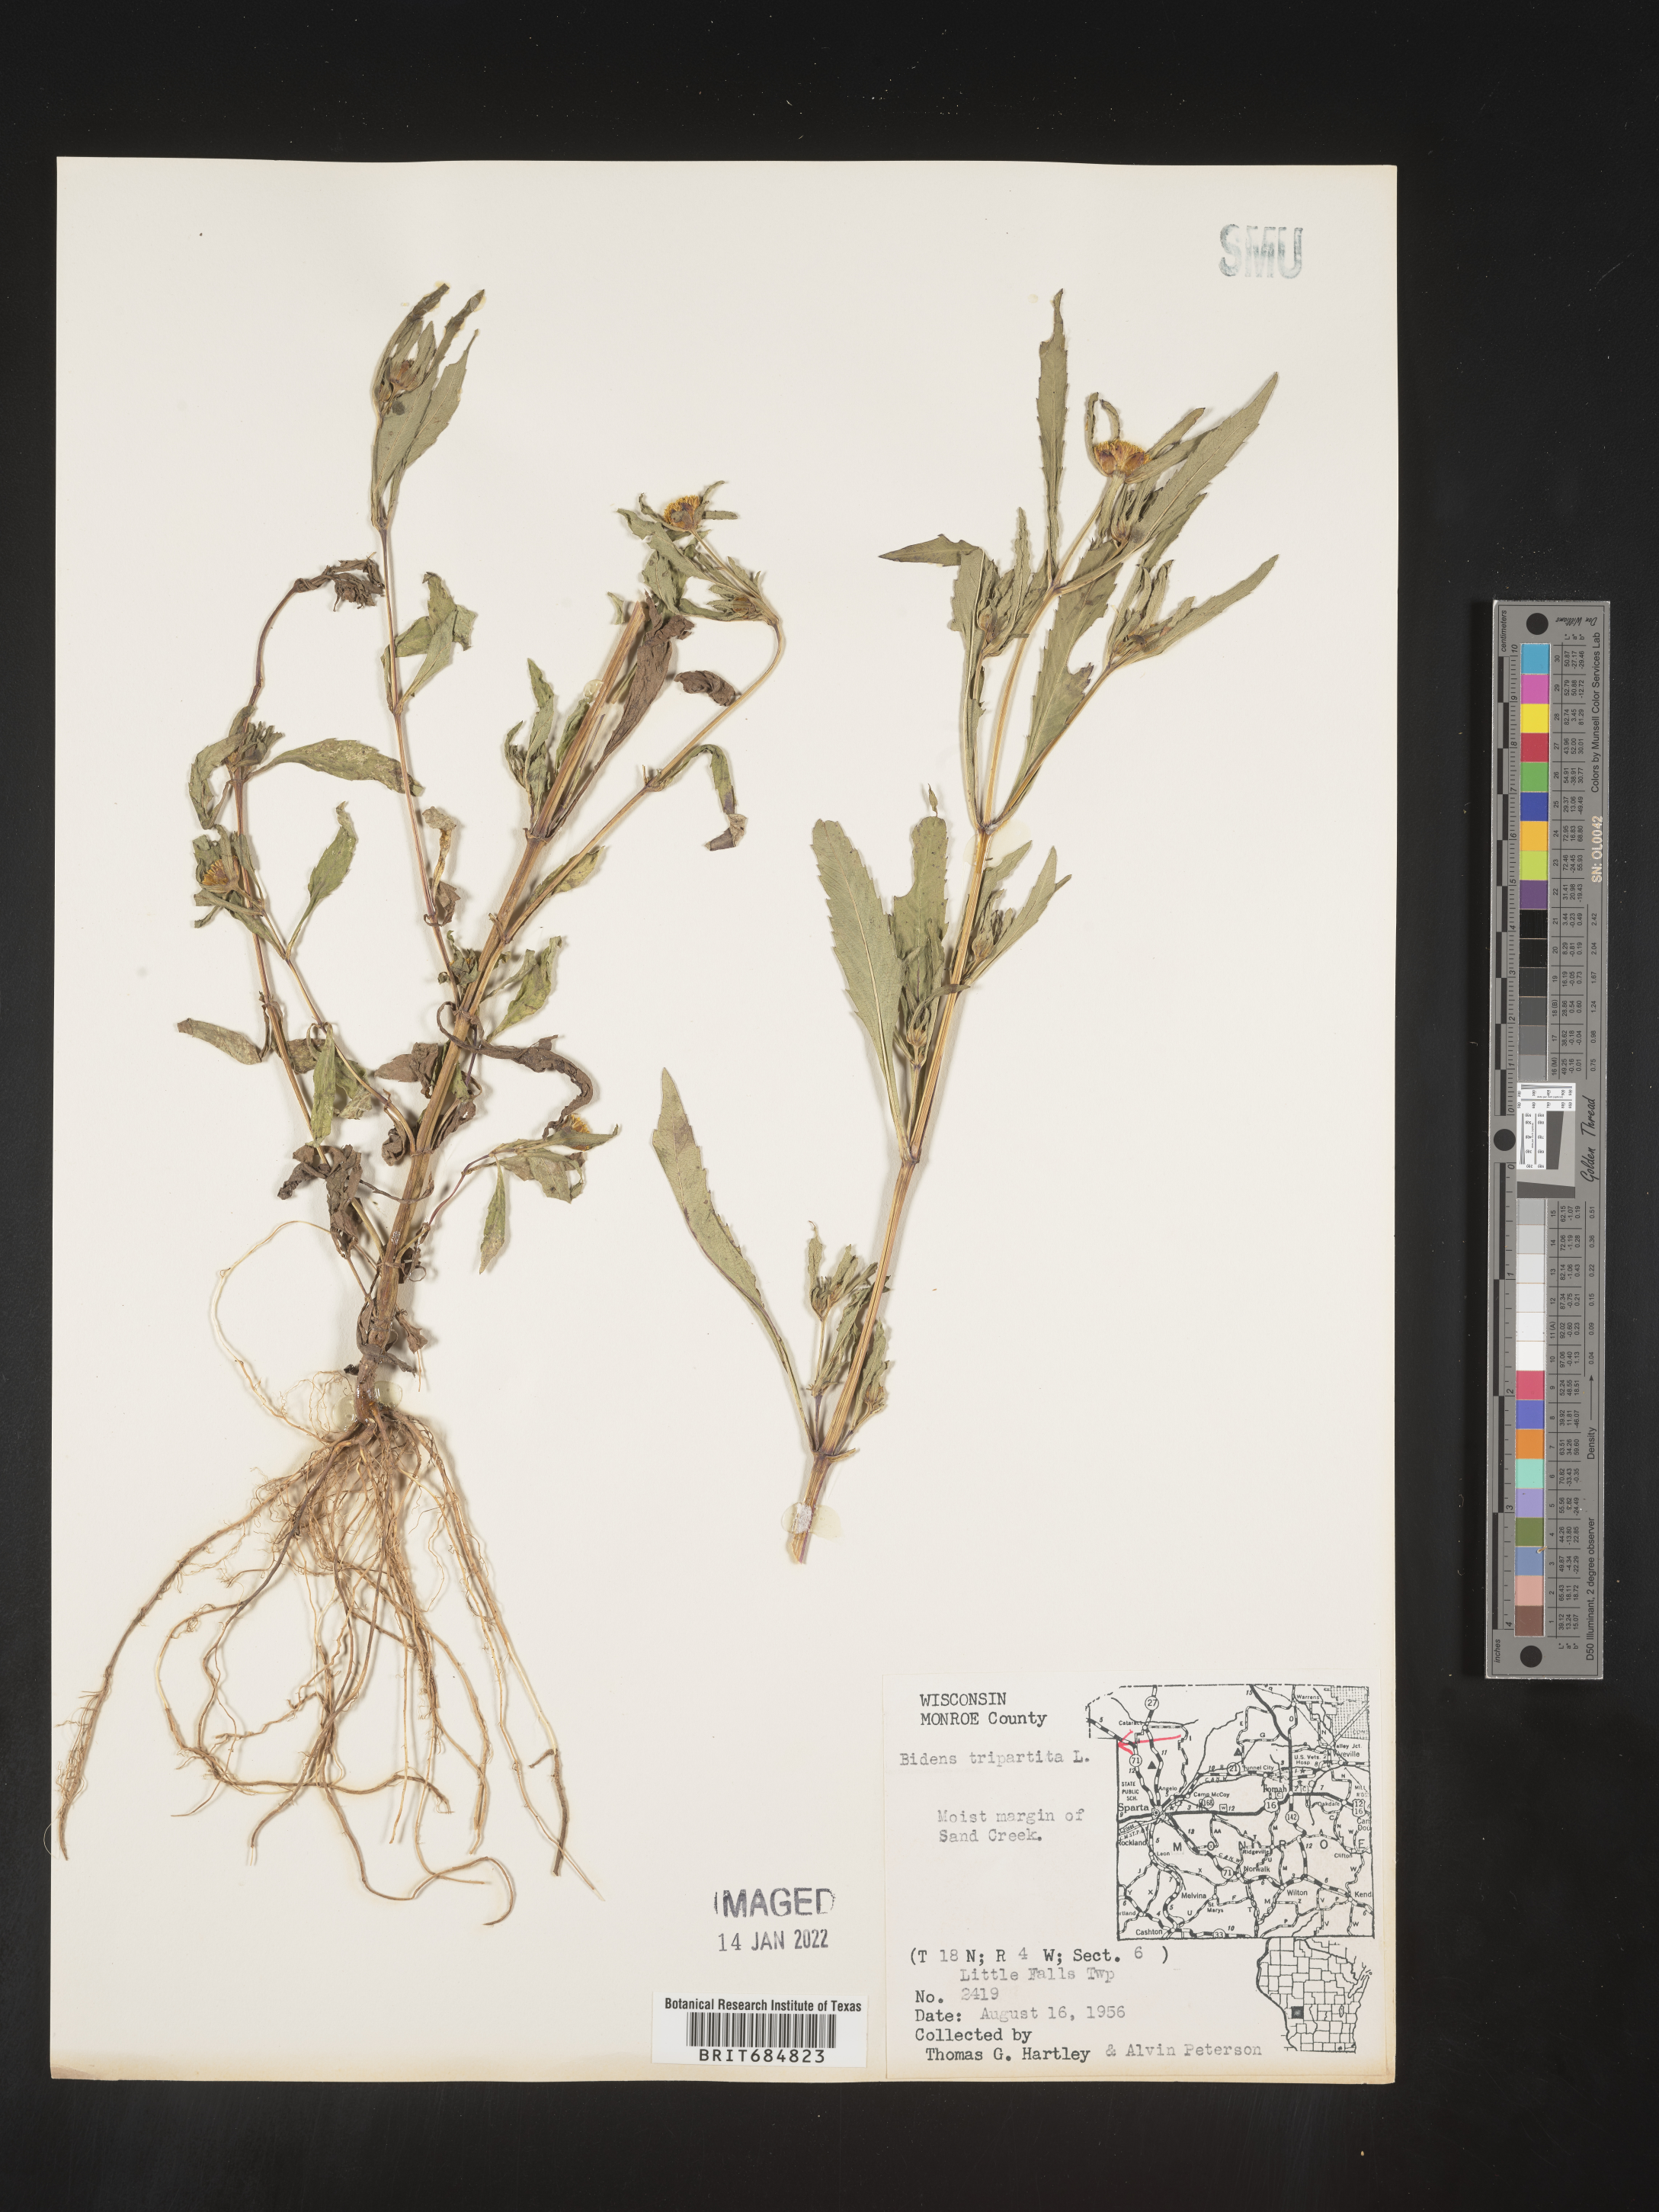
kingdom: Plantae
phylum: Tracheophyta
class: Magnoliopsida
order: Asterales
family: Asteraceae
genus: Bidens
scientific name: Bidens tripartita
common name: Trifid bur-marigold
